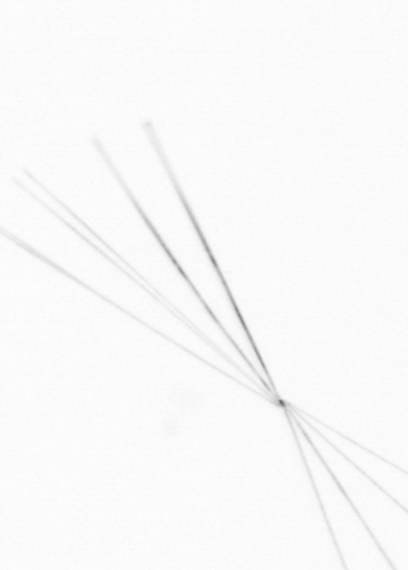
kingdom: Chromista
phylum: Ochrophyta
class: Bacillariophyceae
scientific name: Bacillariophyceae
